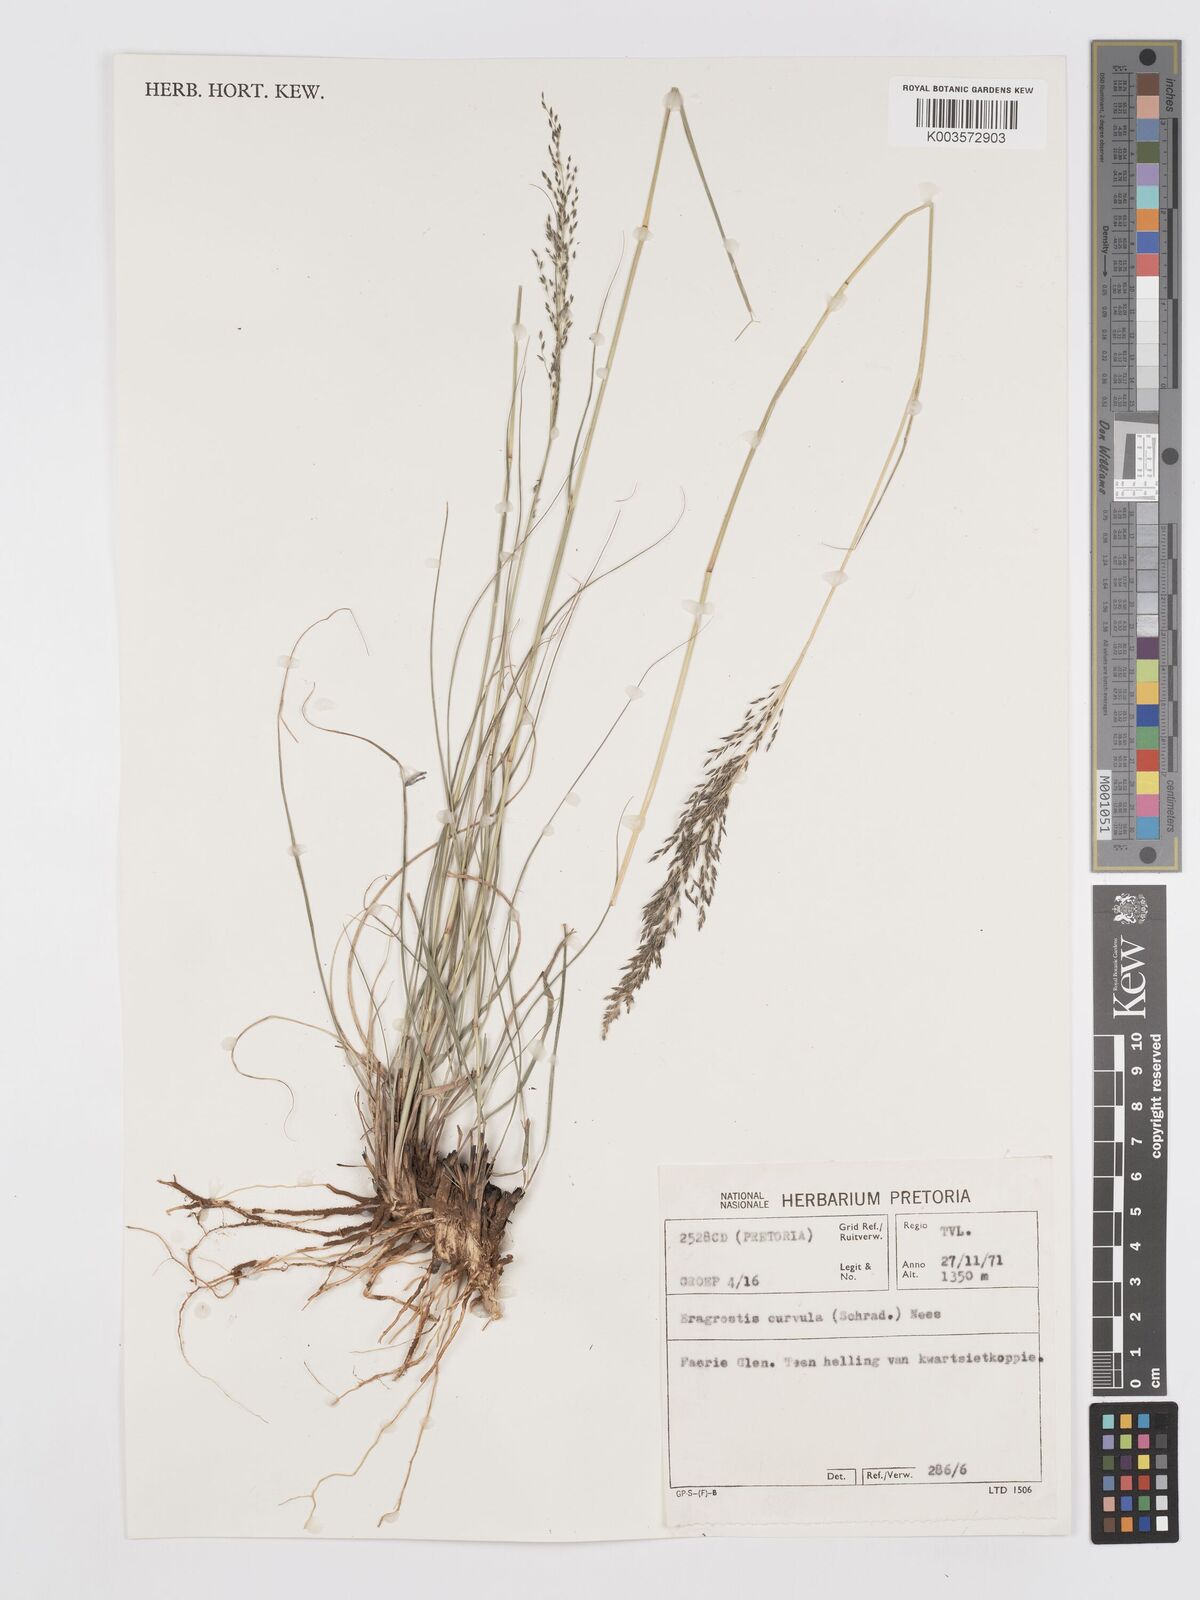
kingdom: Plantae
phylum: Tracheophyta
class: Liliopsida
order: Poales
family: Poaceae
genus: Eragrostis
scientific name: Eragrostis curvula
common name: African love-grass
